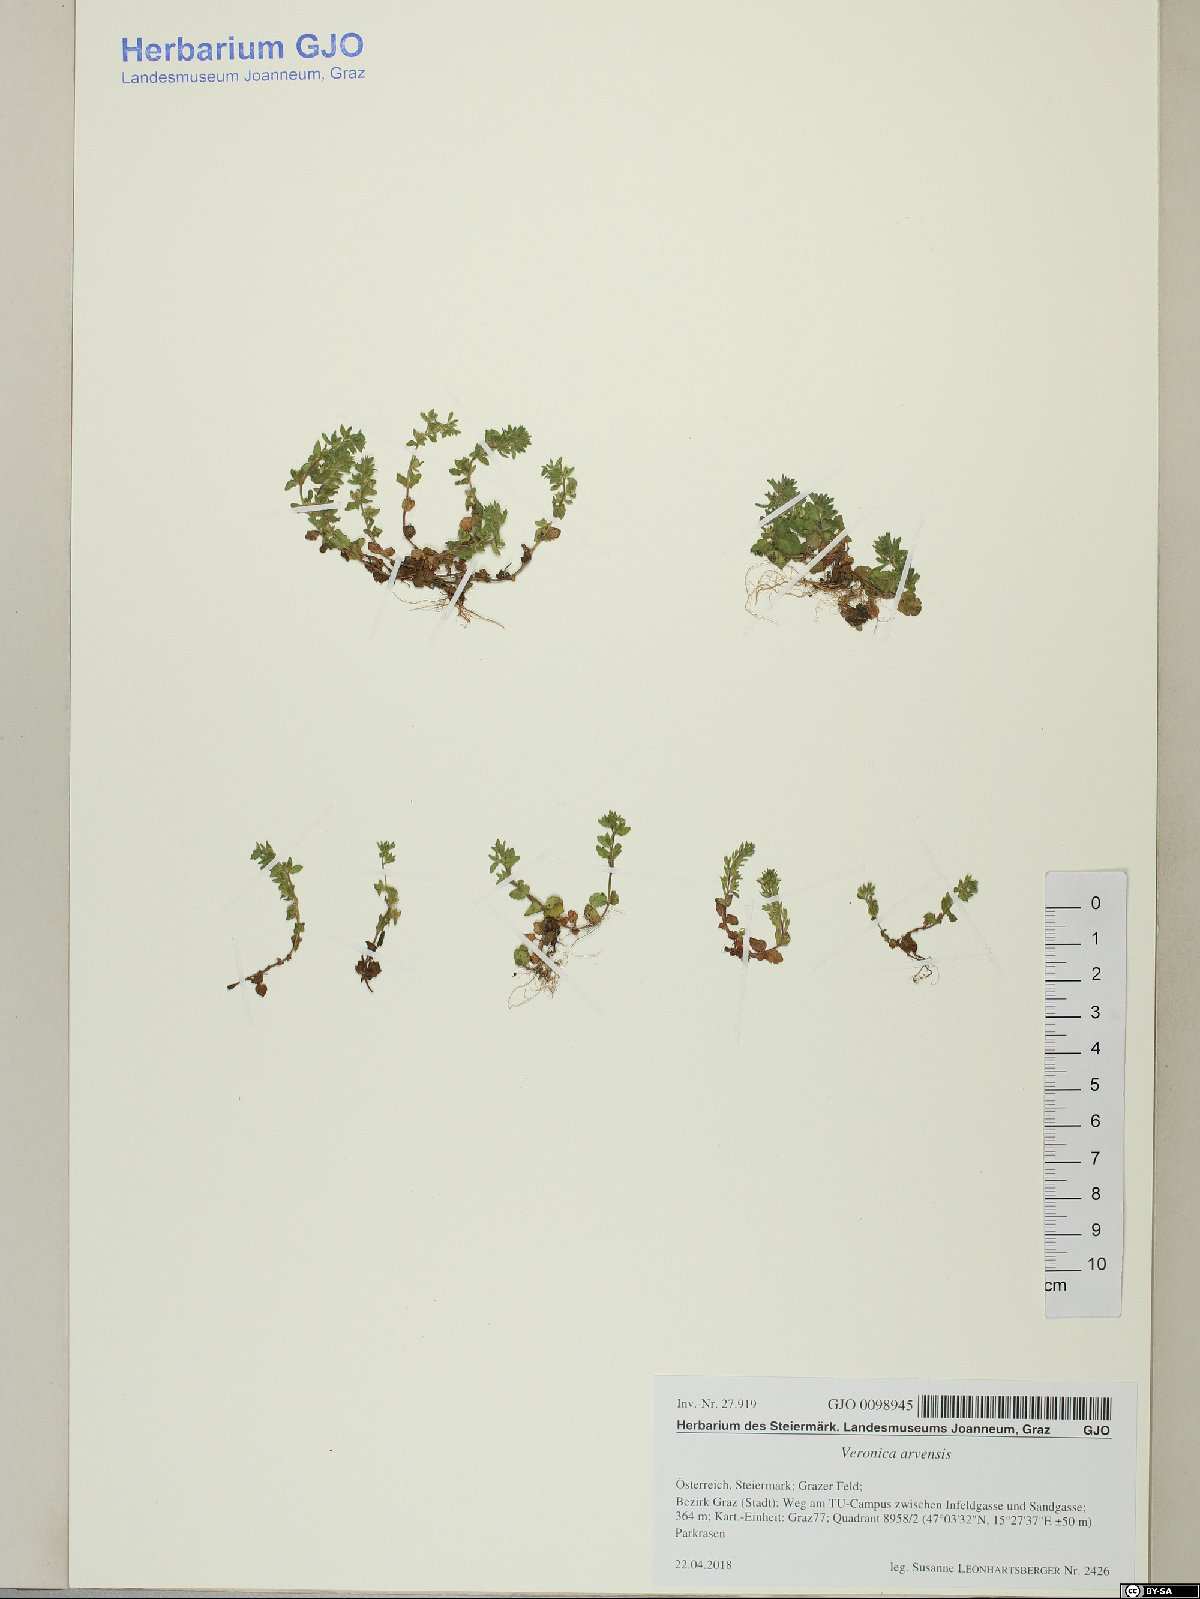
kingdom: Plantae
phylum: Tracheophyta
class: Magnoliopsida
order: Lamiales
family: Plantaginaceae
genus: Veronica
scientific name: Veronica arvensis
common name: Corn speedwell
